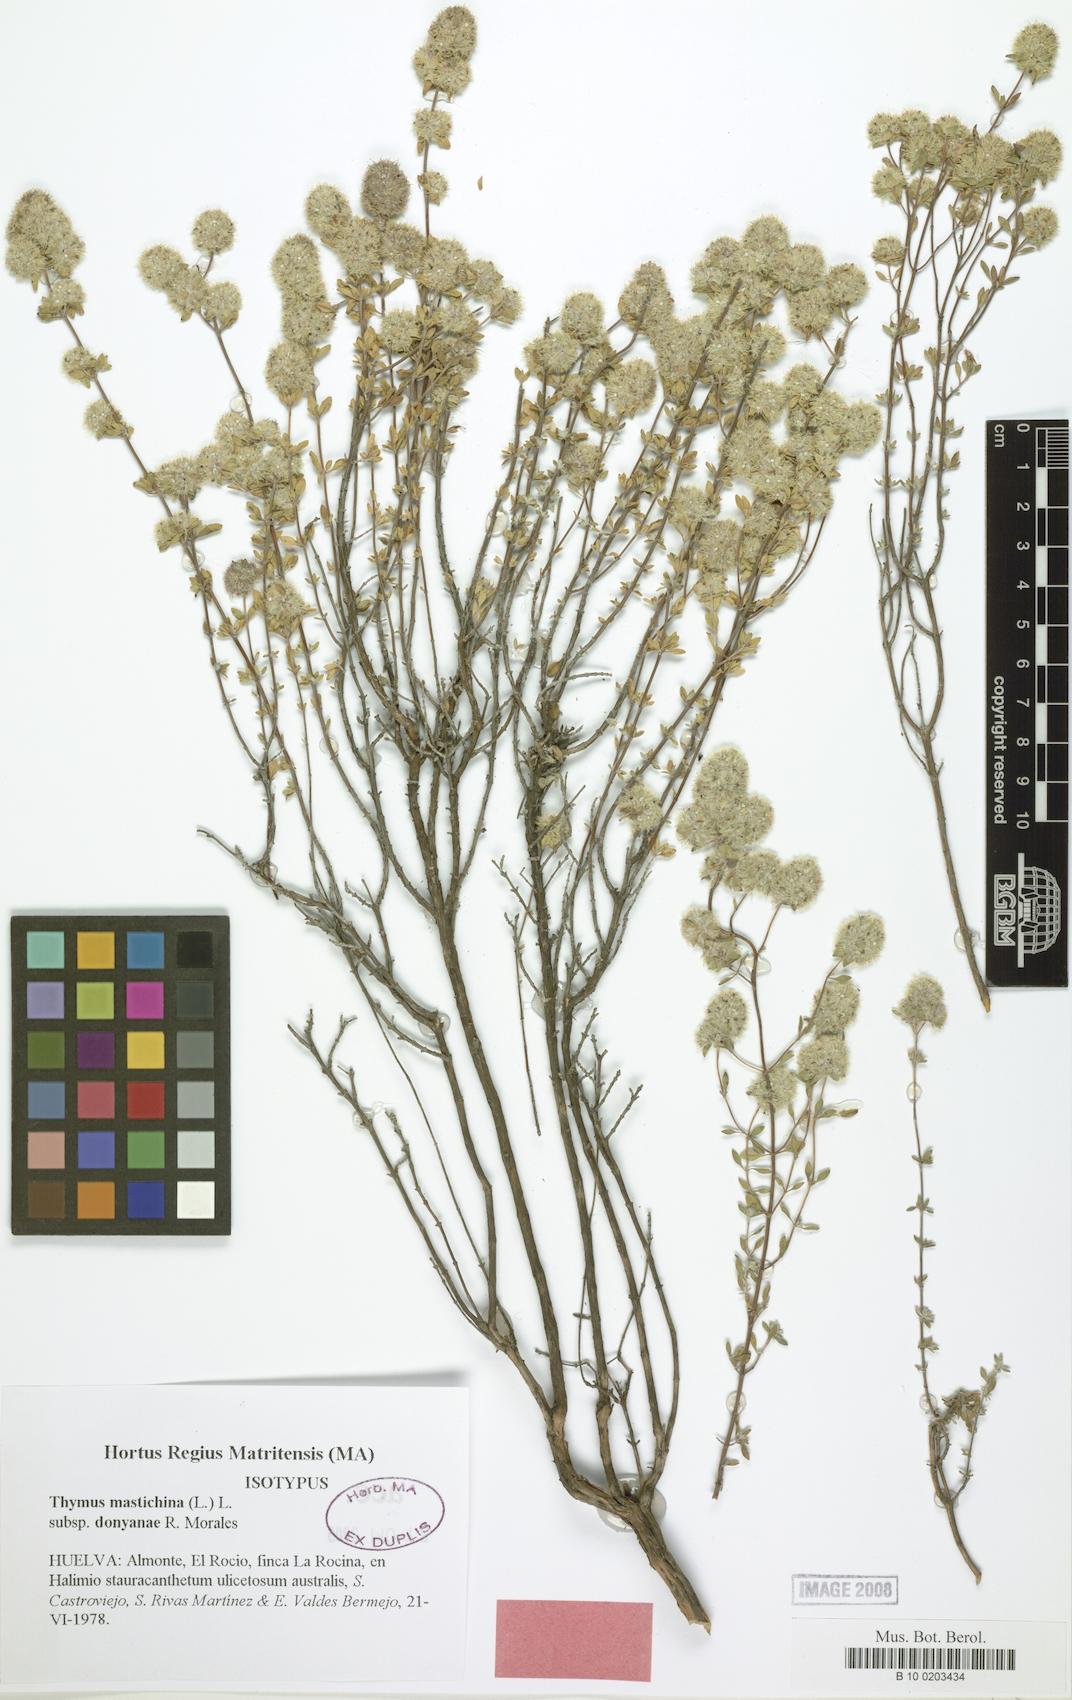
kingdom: Plantae
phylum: Tracheophyta
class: Magnoliopsida
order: Lamiales
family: Lamiaceae
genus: Thymus
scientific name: Thymus mastichina
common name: Mastic thyme
